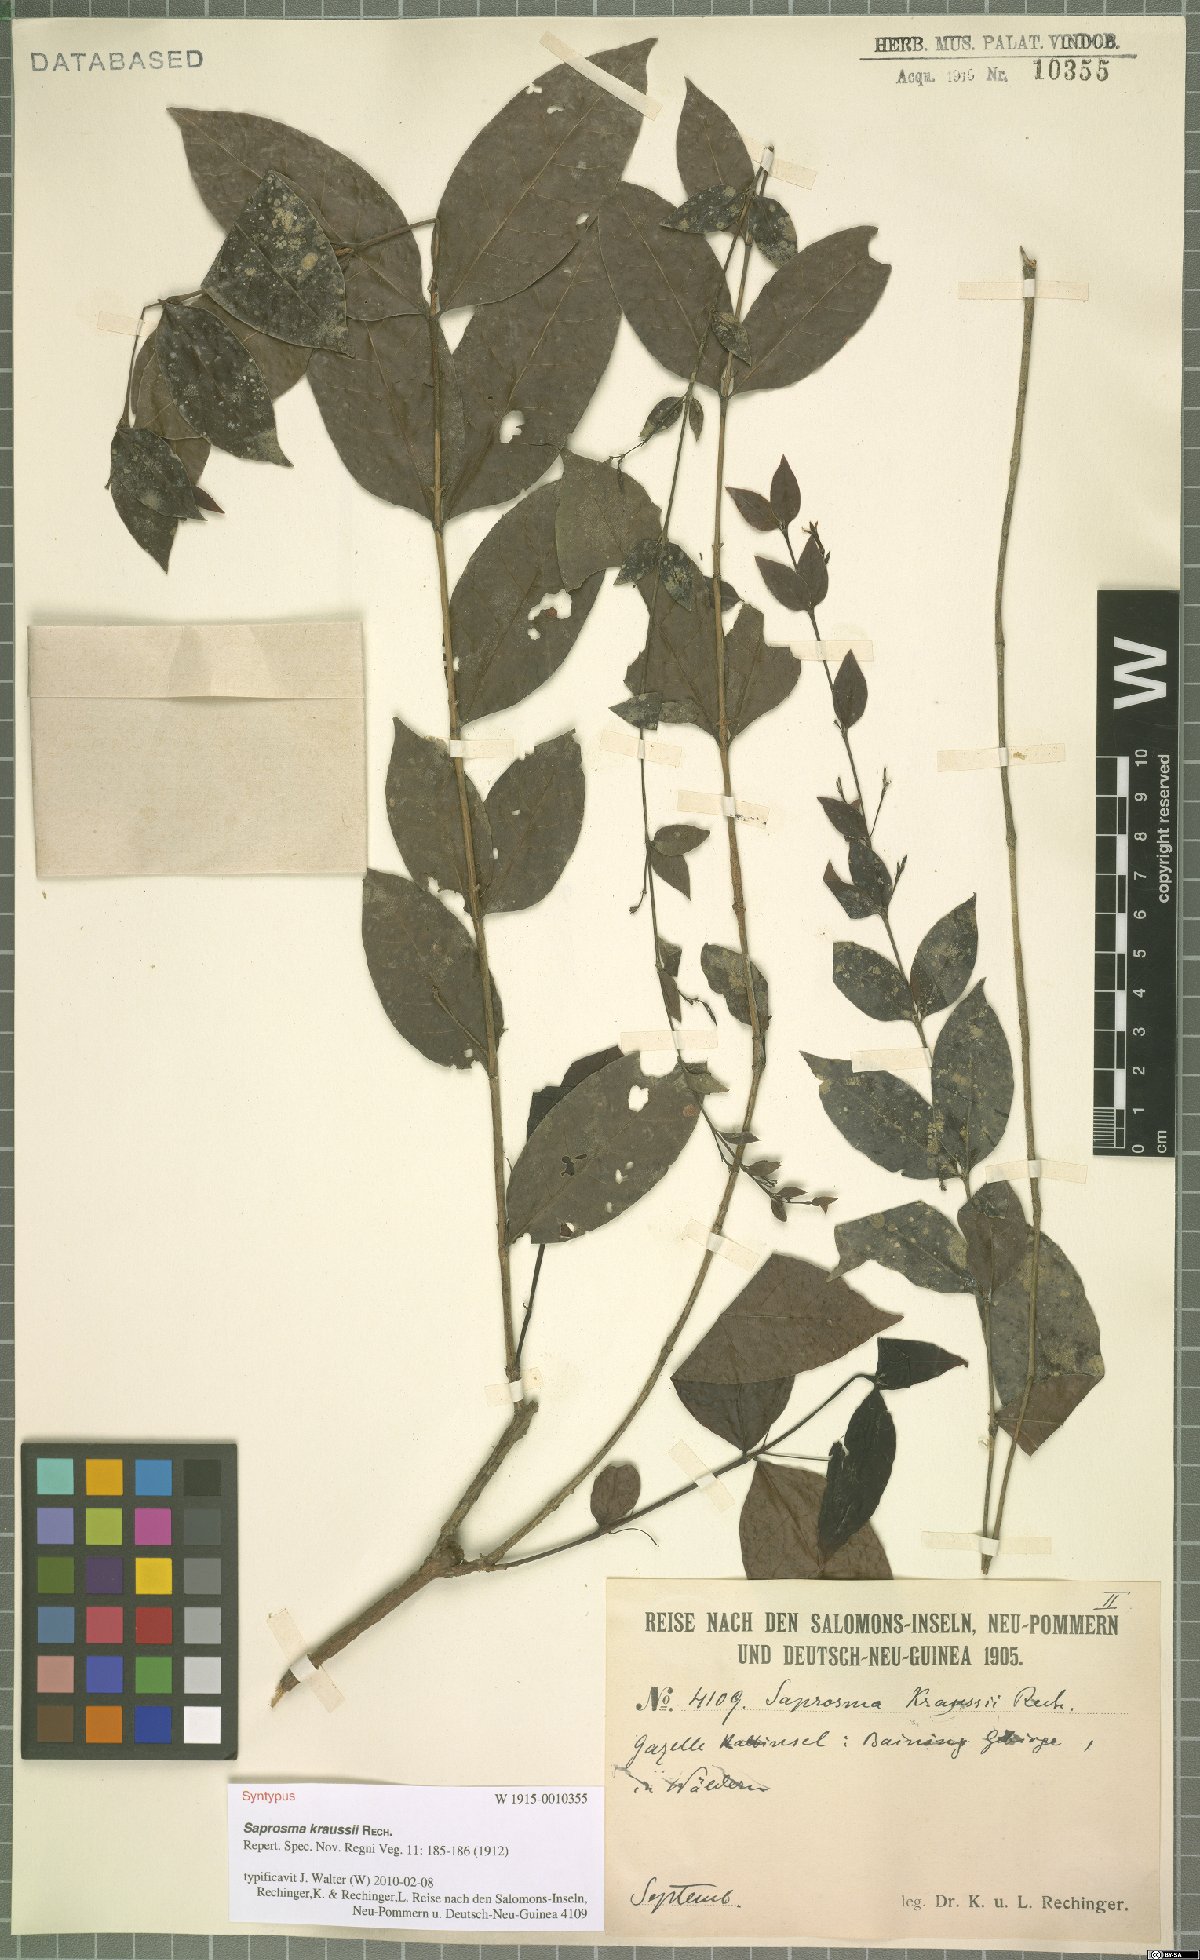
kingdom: Plantae
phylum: Tracheophyta
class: Magnoliopsida
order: Gentianales
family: Rubiaceae
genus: Saprosma
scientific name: Saprosma kraussii
